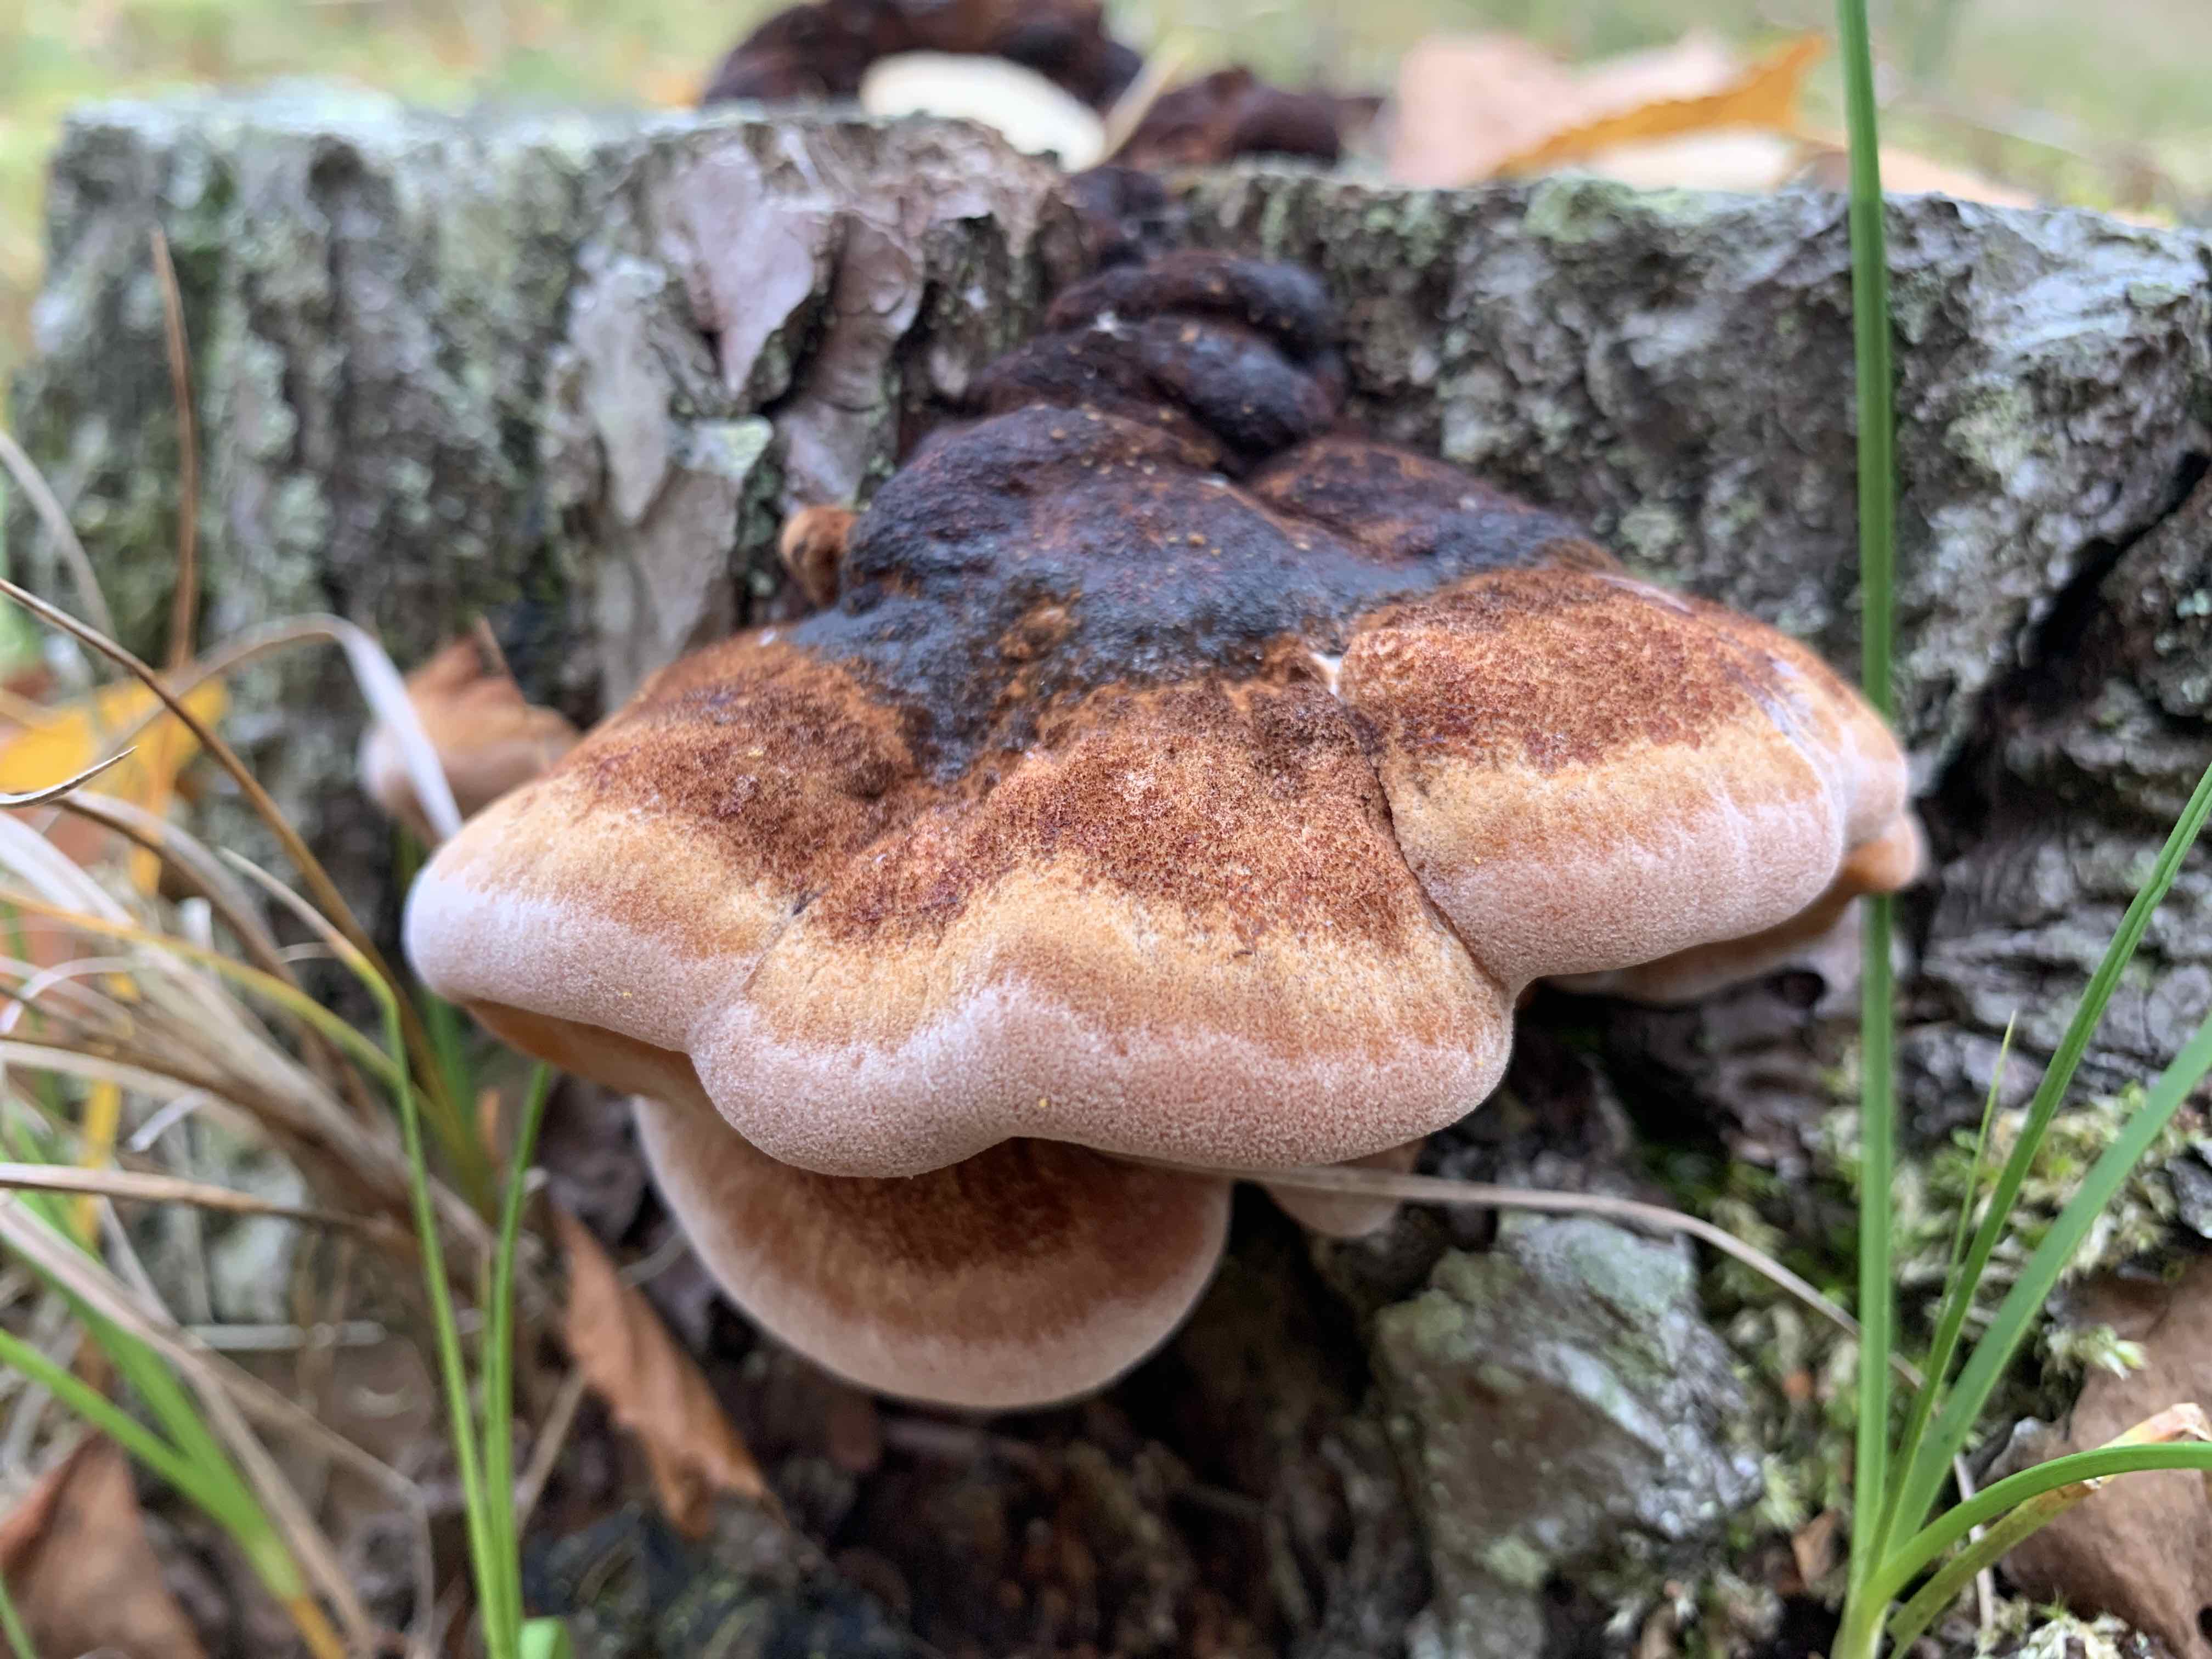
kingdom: Fungi
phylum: Basidiomycota
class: Agaricomycetes
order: Polyporales
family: Ischnodermataceae
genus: Ischnoderma
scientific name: Ischnoderma benzoinum
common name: gran-tjæreporesvamp
